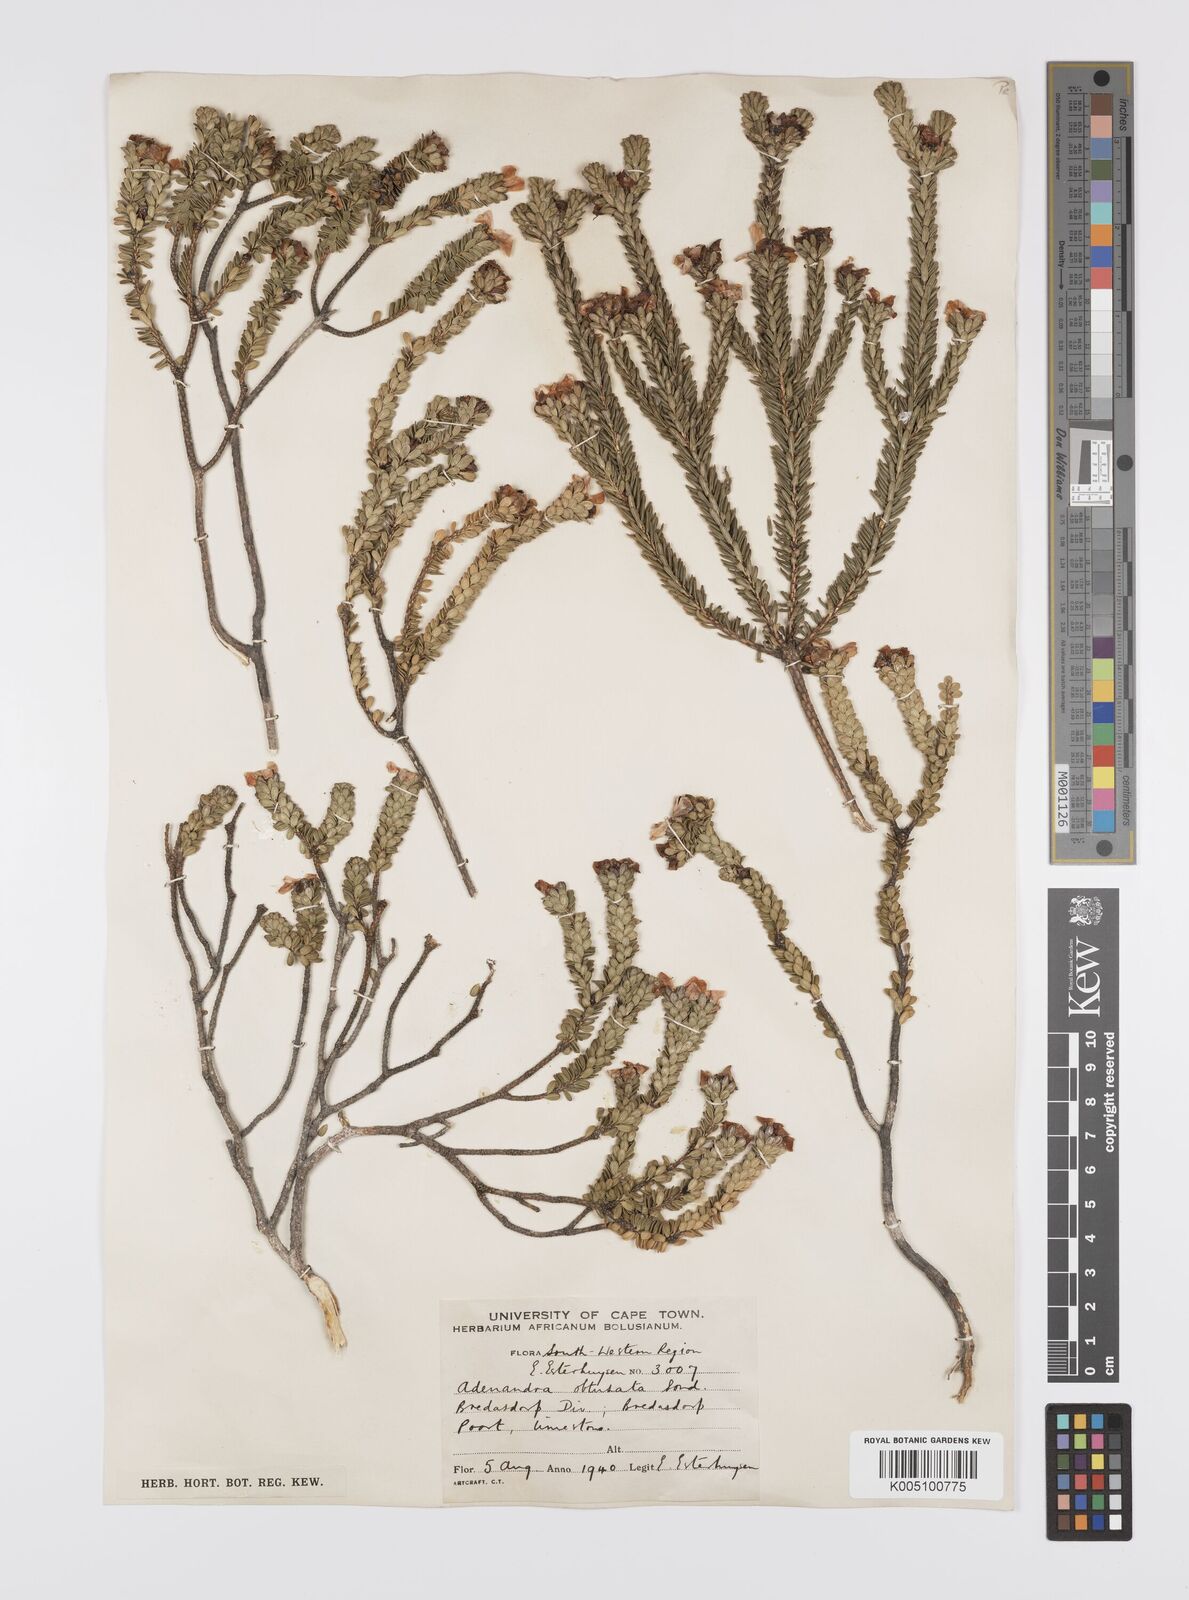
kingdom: Plantae
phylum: Tracheophyta
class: Magnoliopsida
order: Sapindales
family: Rutaceae
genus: Adenandra
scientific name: Adenandra obtusata
